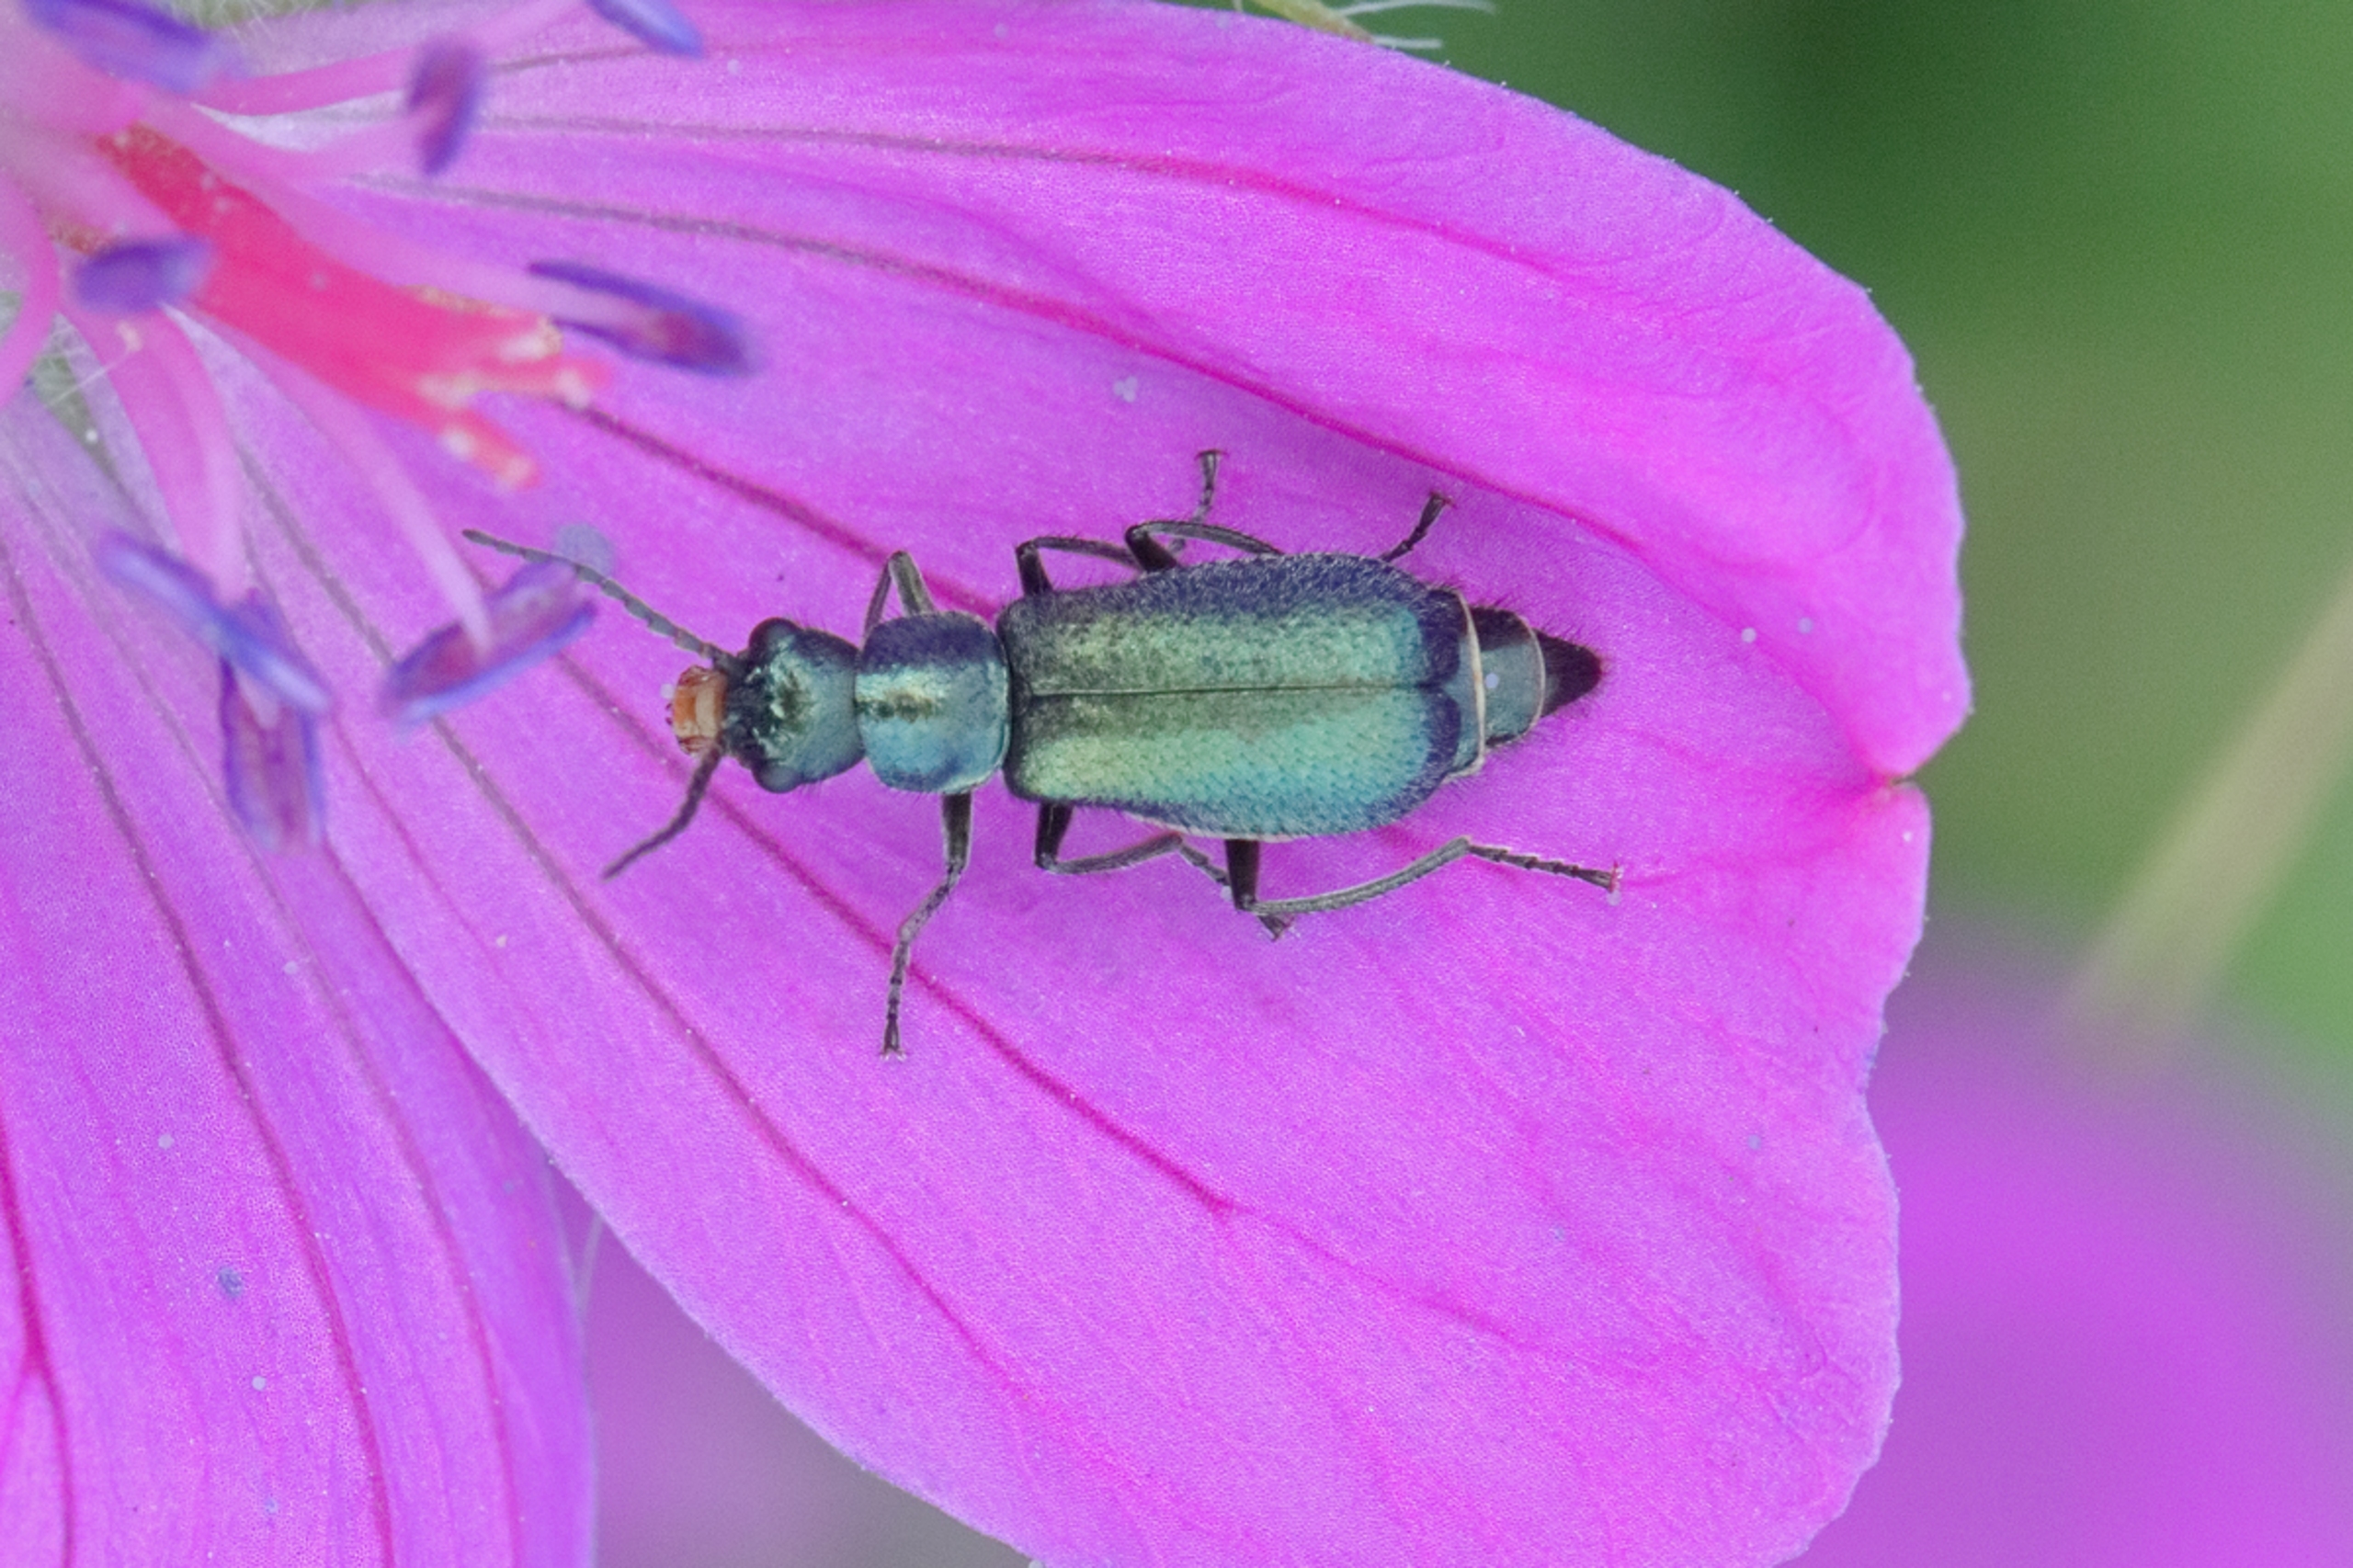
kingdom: Animalia
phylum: Arthropoda
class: Insecta
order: Coleoptera
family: Malachiidae
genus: Cordylepherus
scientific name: Cordylepherus viridis
